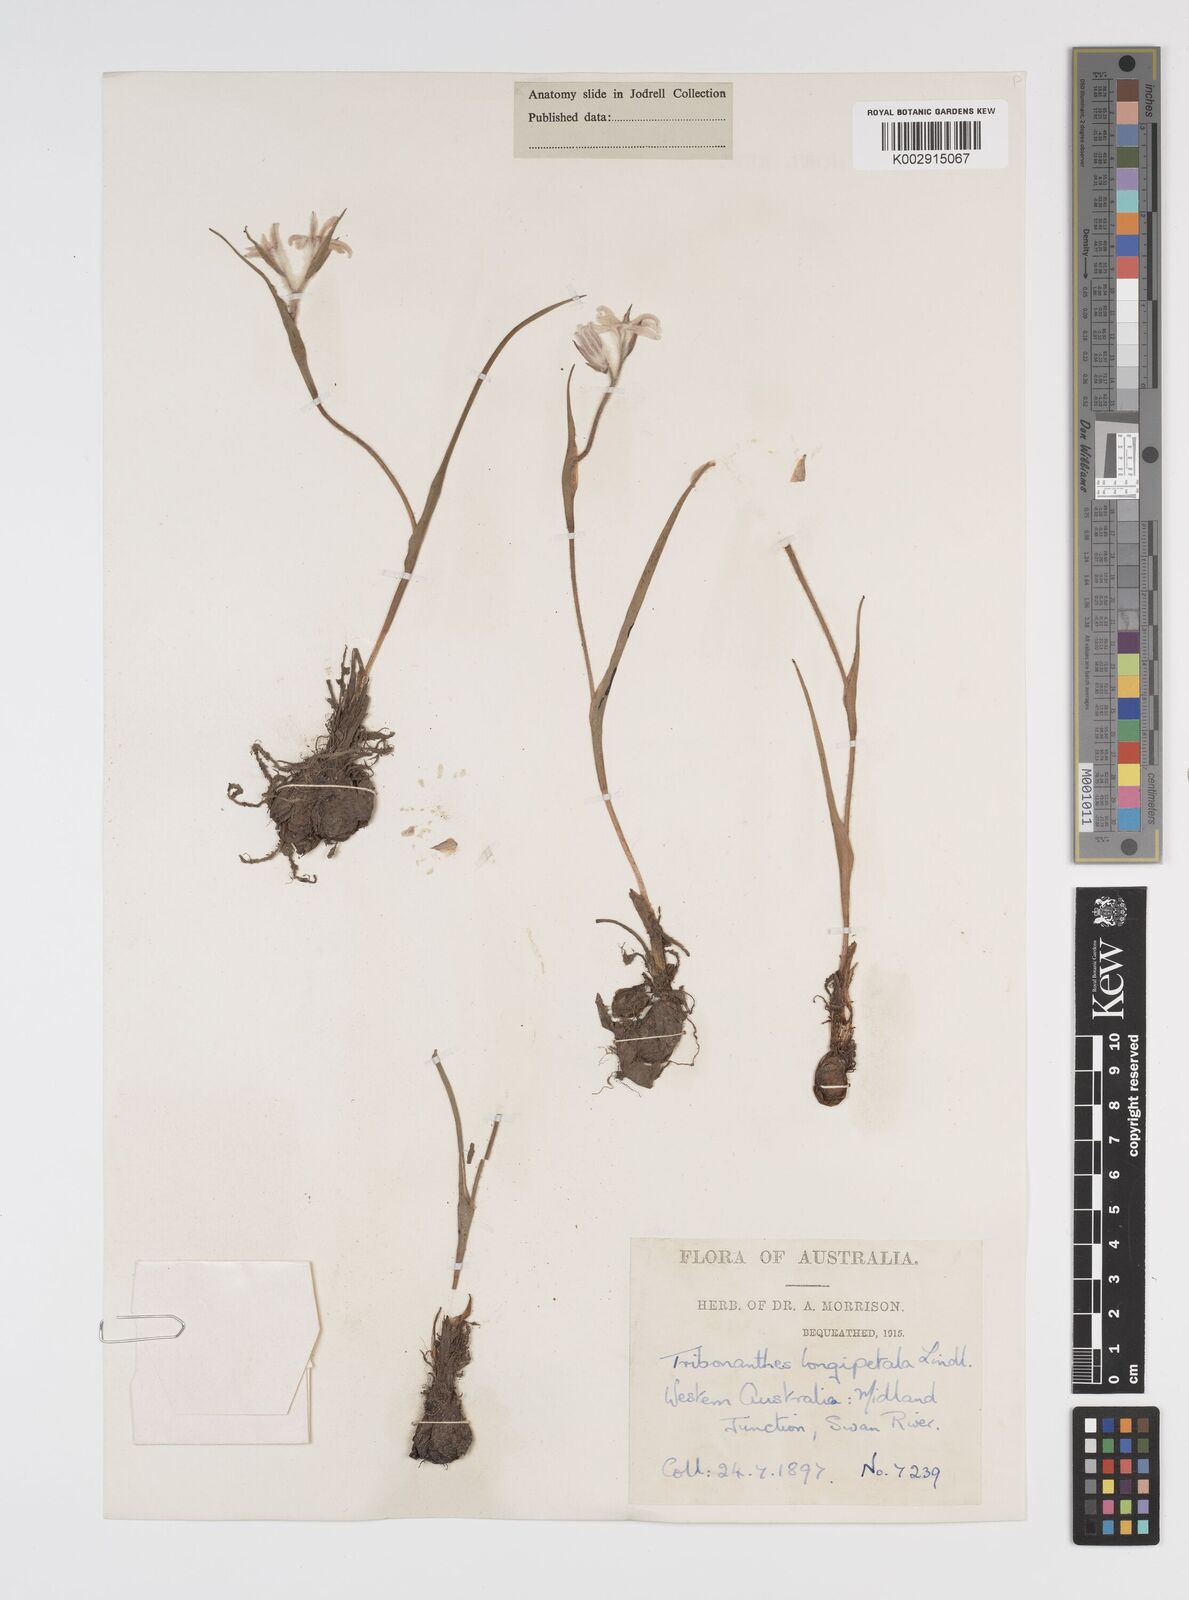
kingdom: Plantae
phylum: Tracheophyta
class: Liliopsida
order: Commelinales
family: Haemodoraceae
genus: Tribonanthes
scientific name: Tribonanthes longipetala
